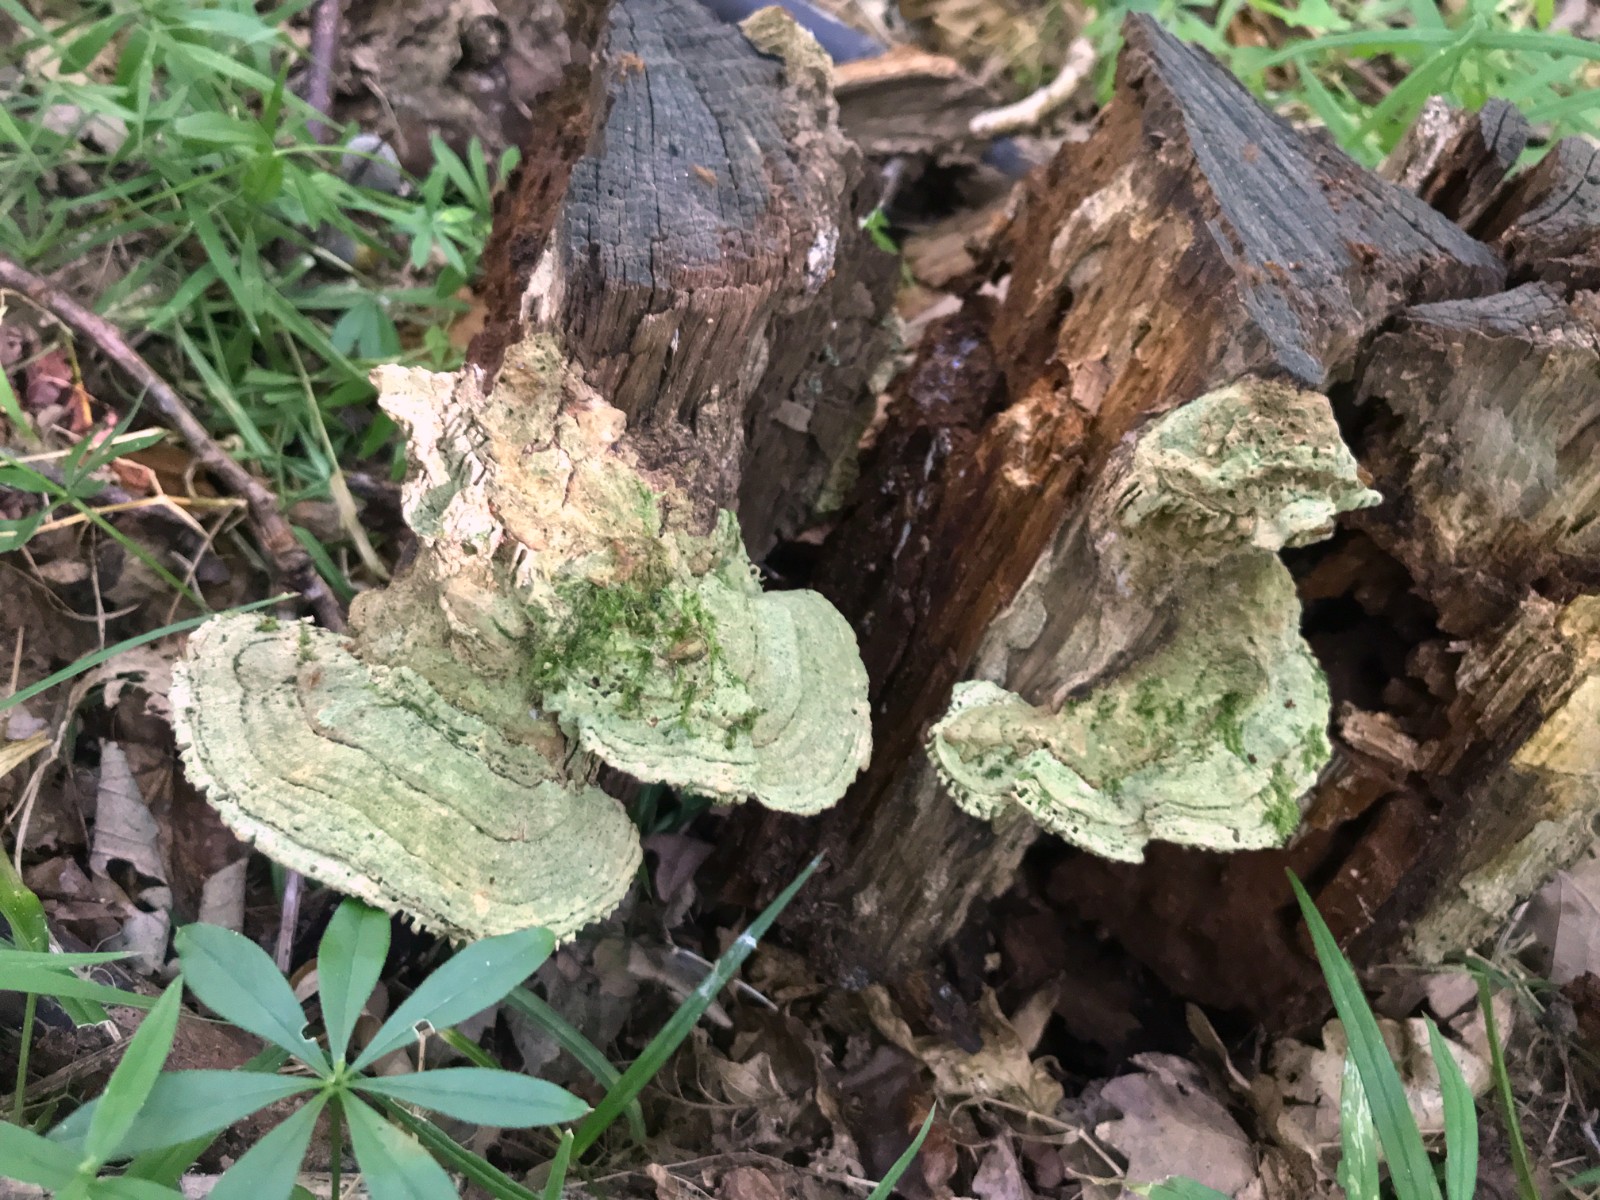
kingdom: Fungi
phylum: Basidiomycota
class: Agaricomycetes
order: Polyporales
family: Fomitopsidaceae
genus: Daedalea
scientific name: Daedalea quercina
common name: ege-labyrintsvamp
